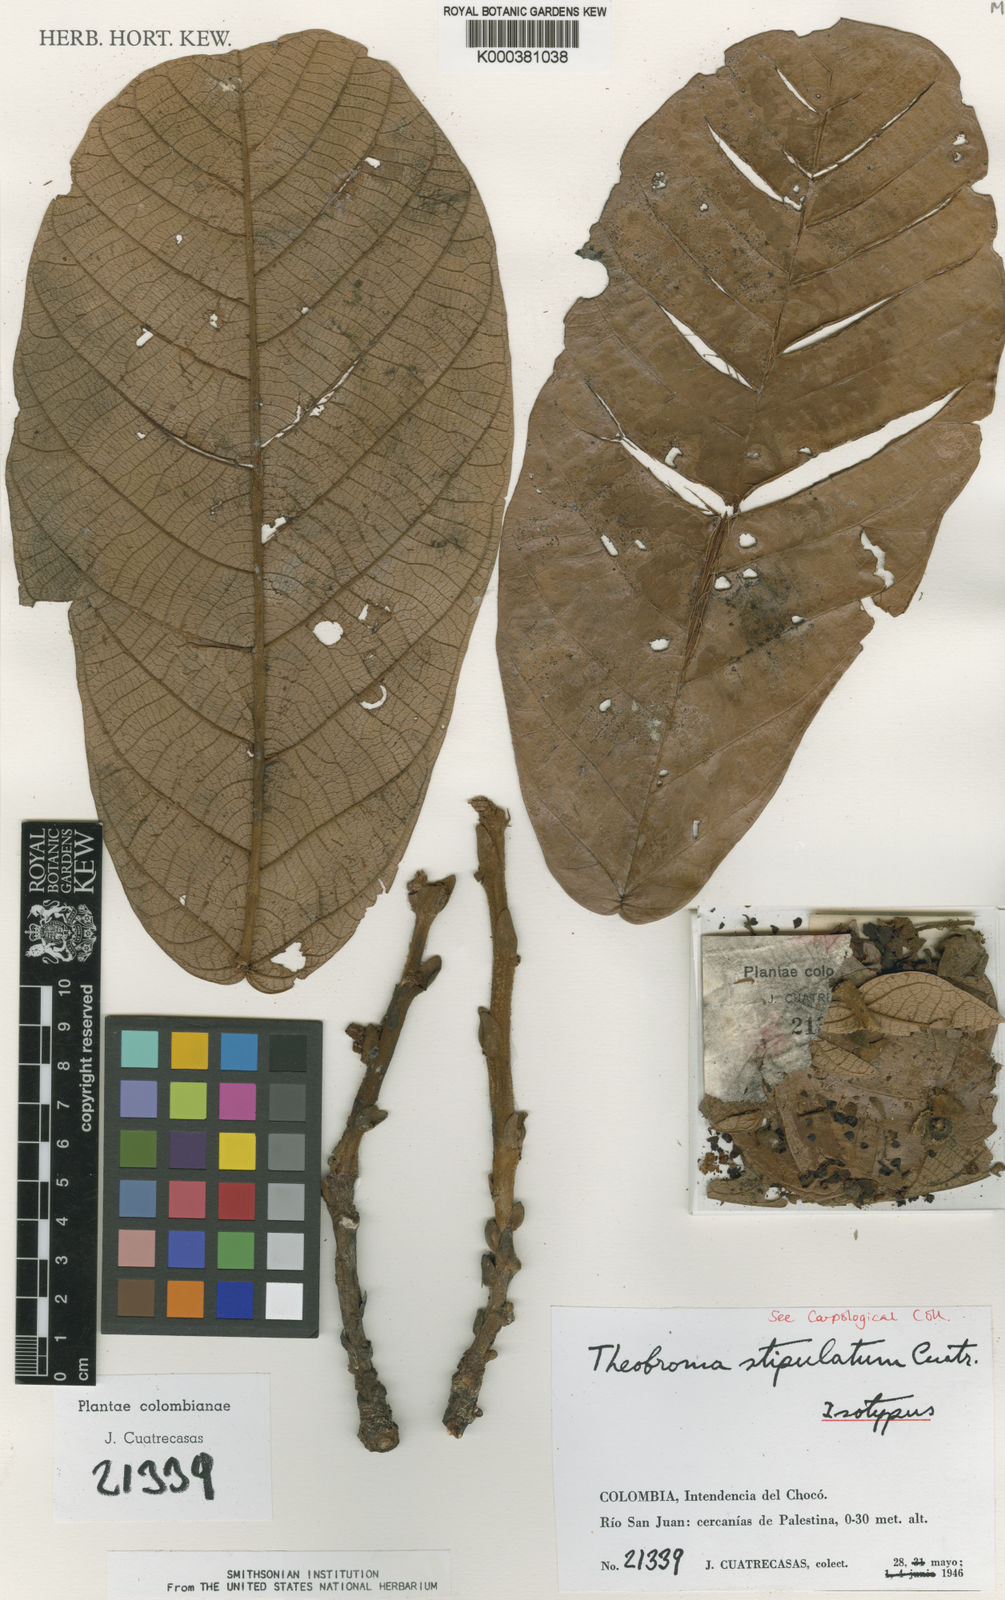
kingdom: Plantae
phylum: Tracheophyta
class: Magnoliopsida
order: Malvales
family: Malvaceae
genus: Theobroma
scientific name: Theobroma simiarum
